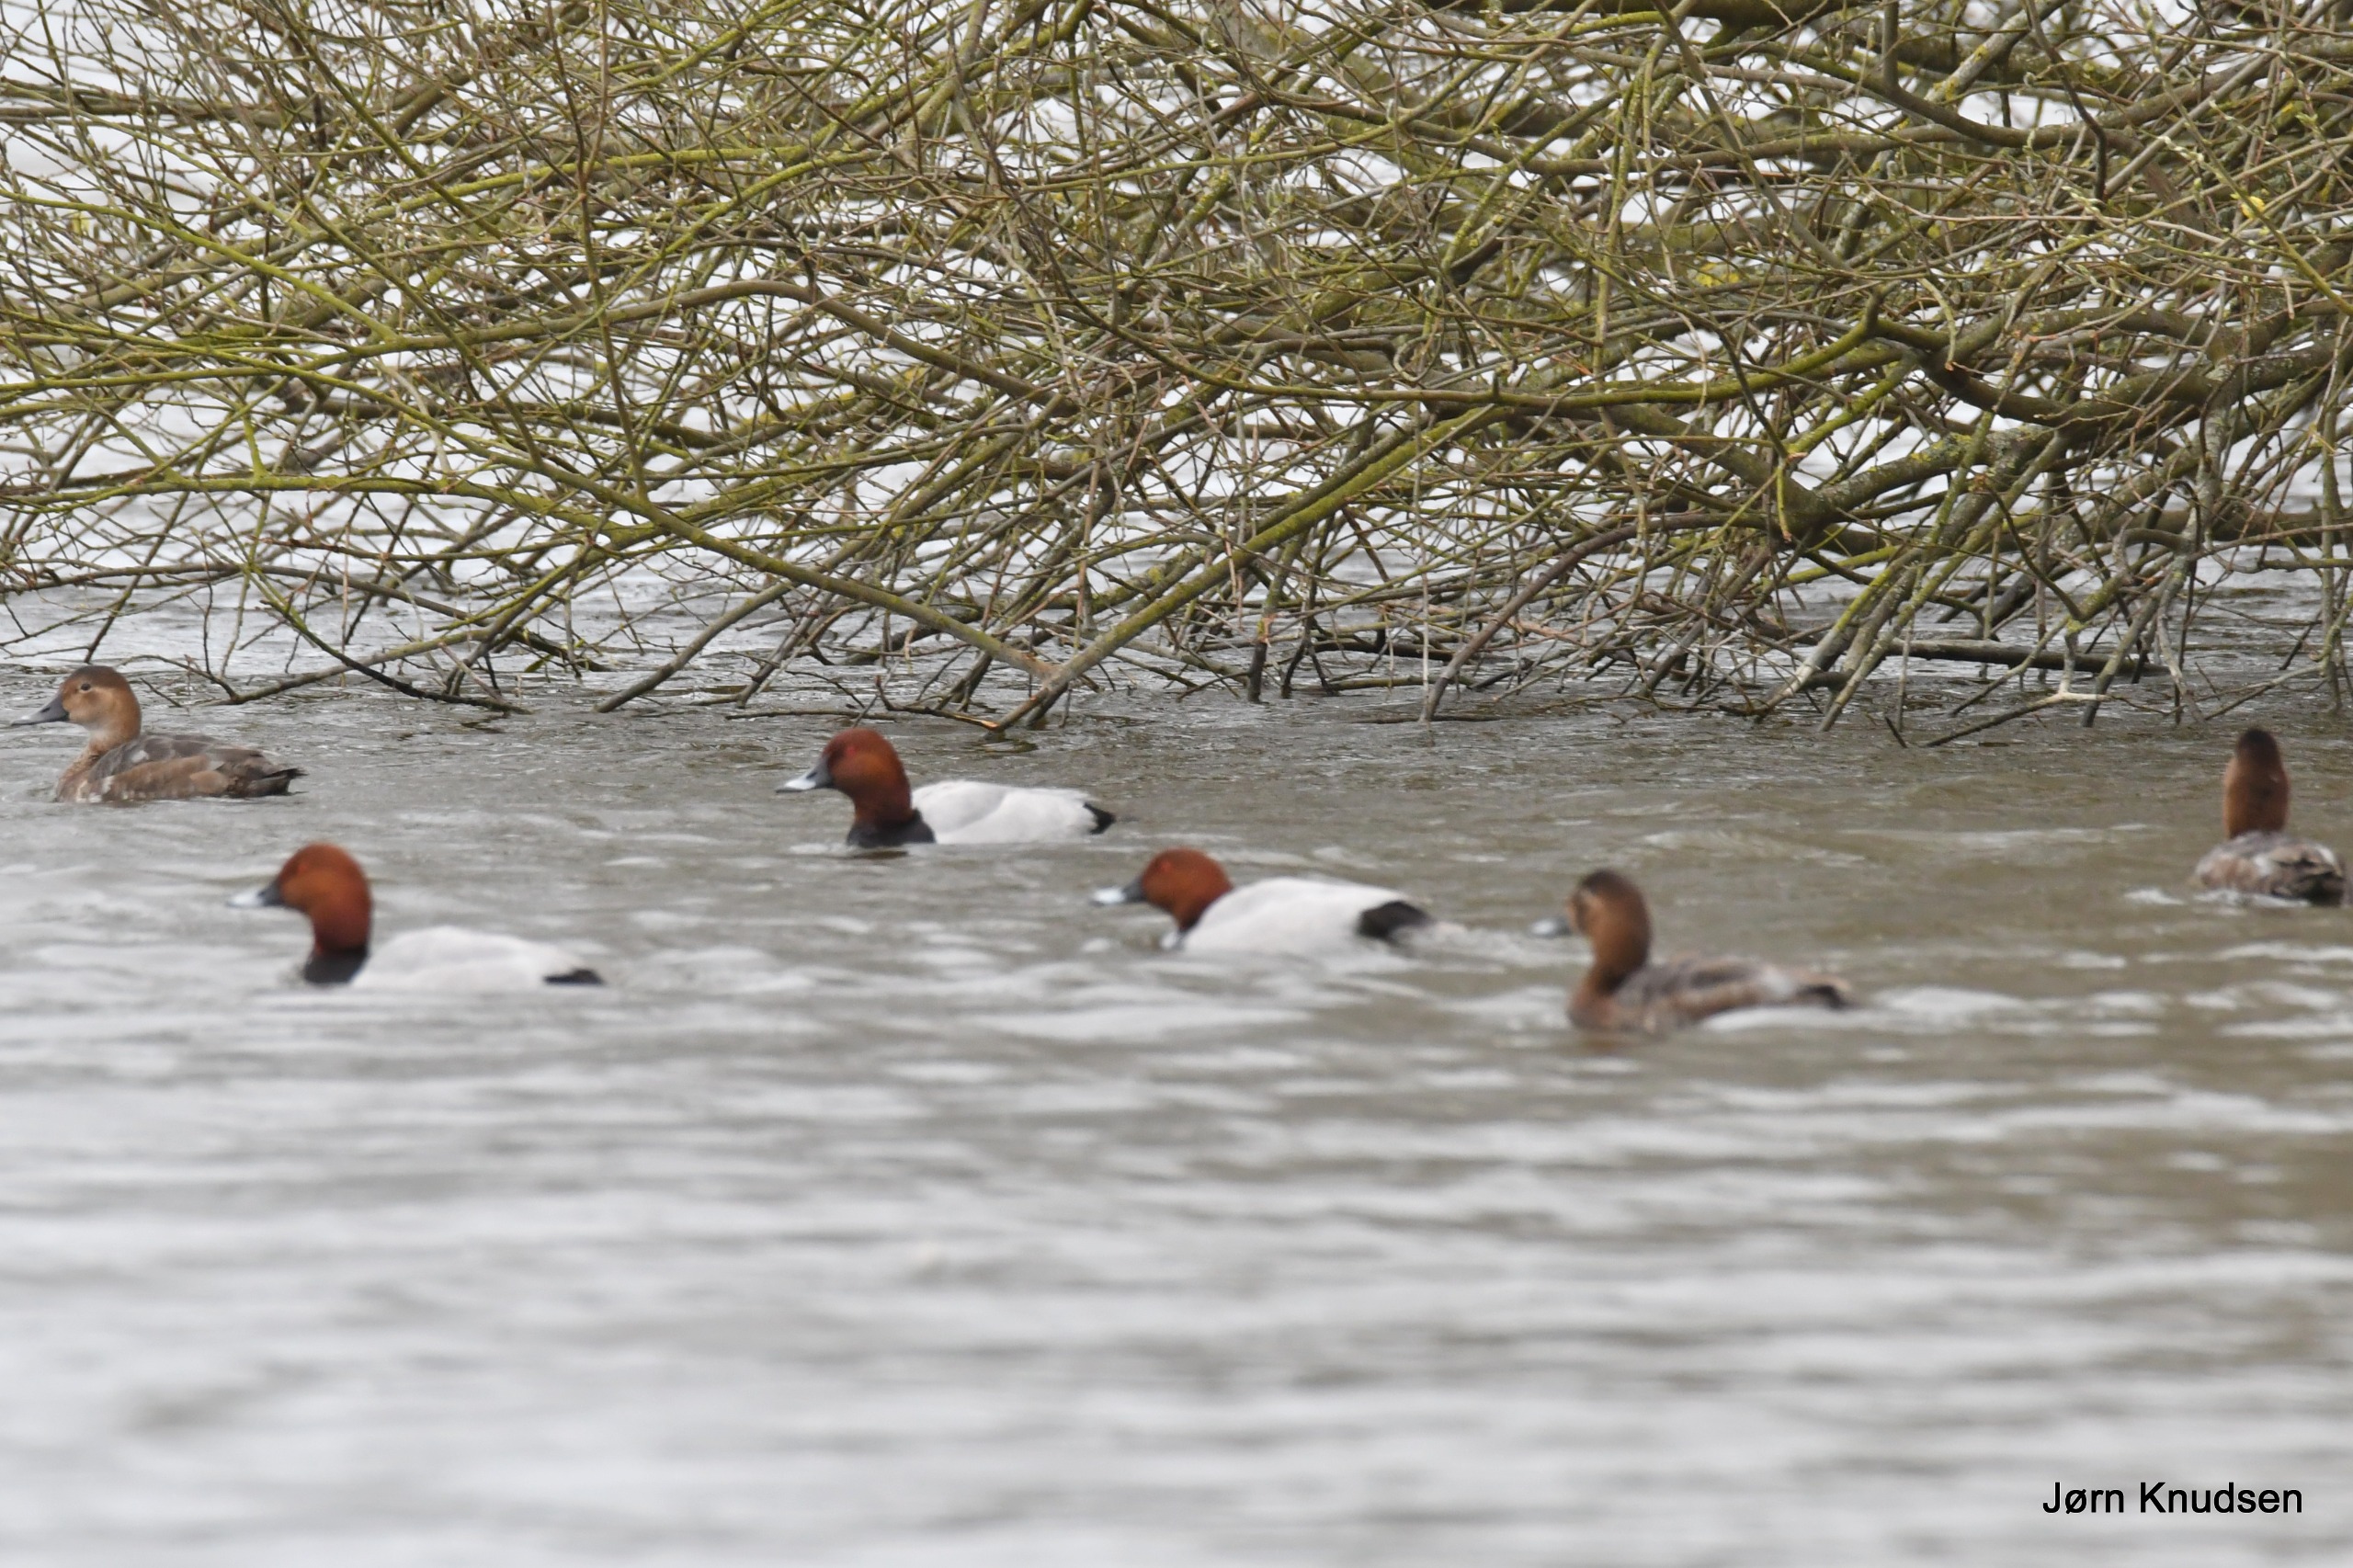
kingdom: Animalia
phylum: Chordata
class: Aves
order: Anseriformes
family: Anatidae
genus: Aythya
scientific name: Aythya ferina
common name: Taffeland
